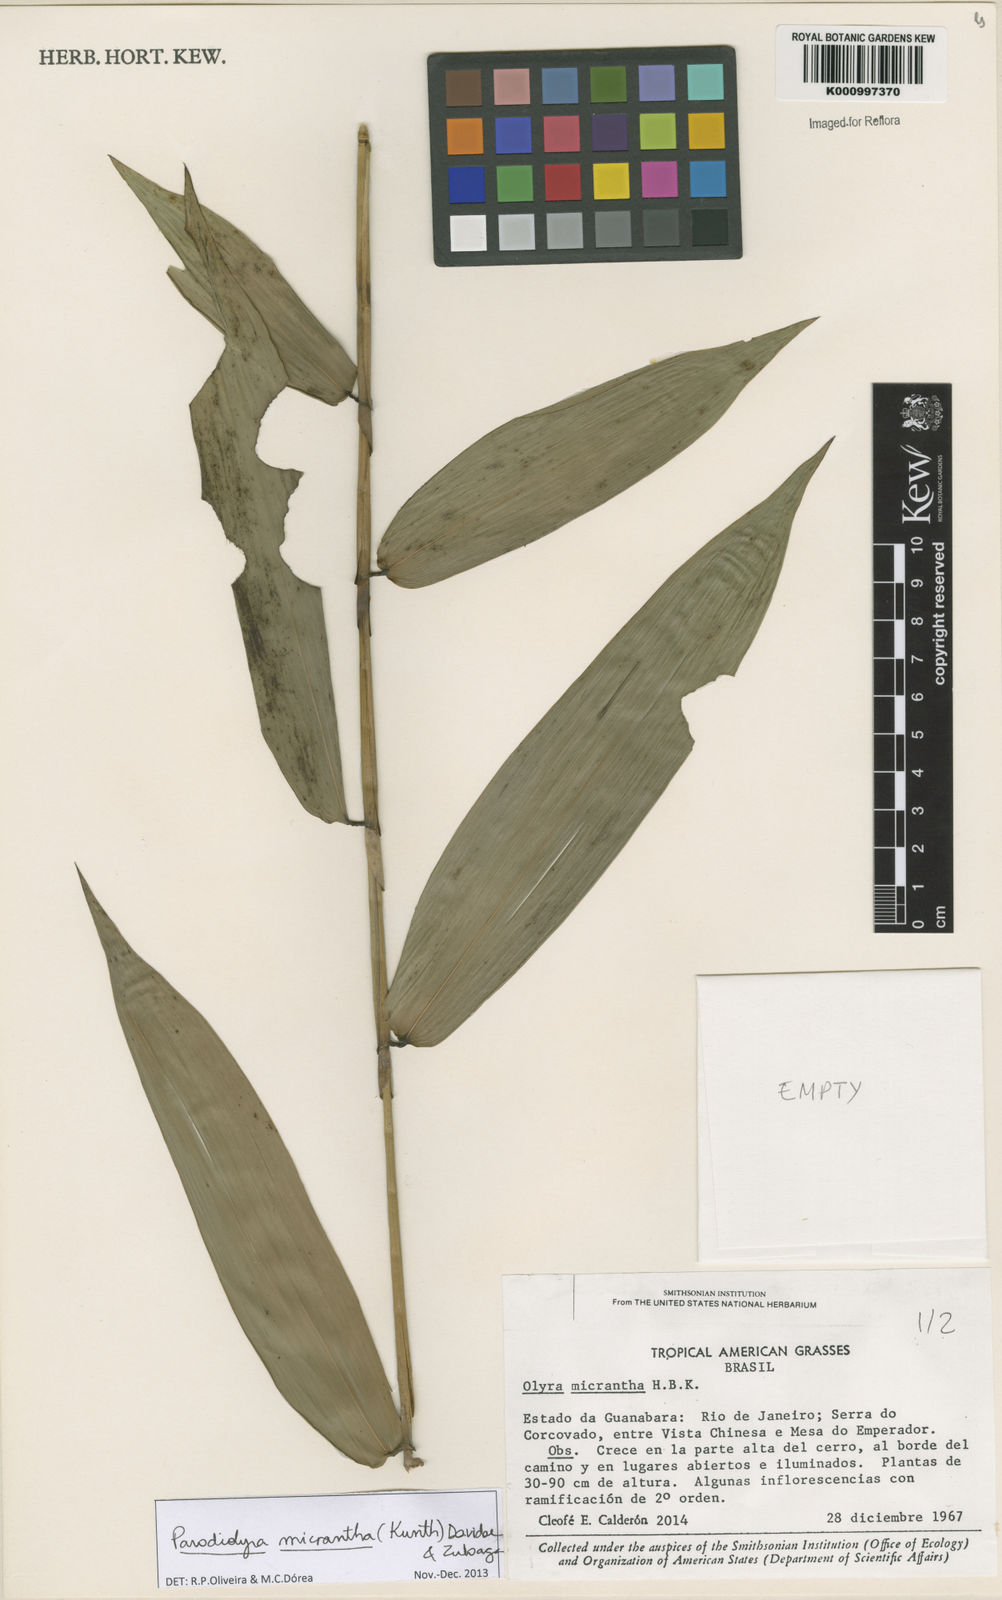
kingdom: Plantae
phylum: Tracheophyta
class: Liliopsida
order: Poales
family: Poaceae
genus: Taquara
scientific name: Taquara micrantha
